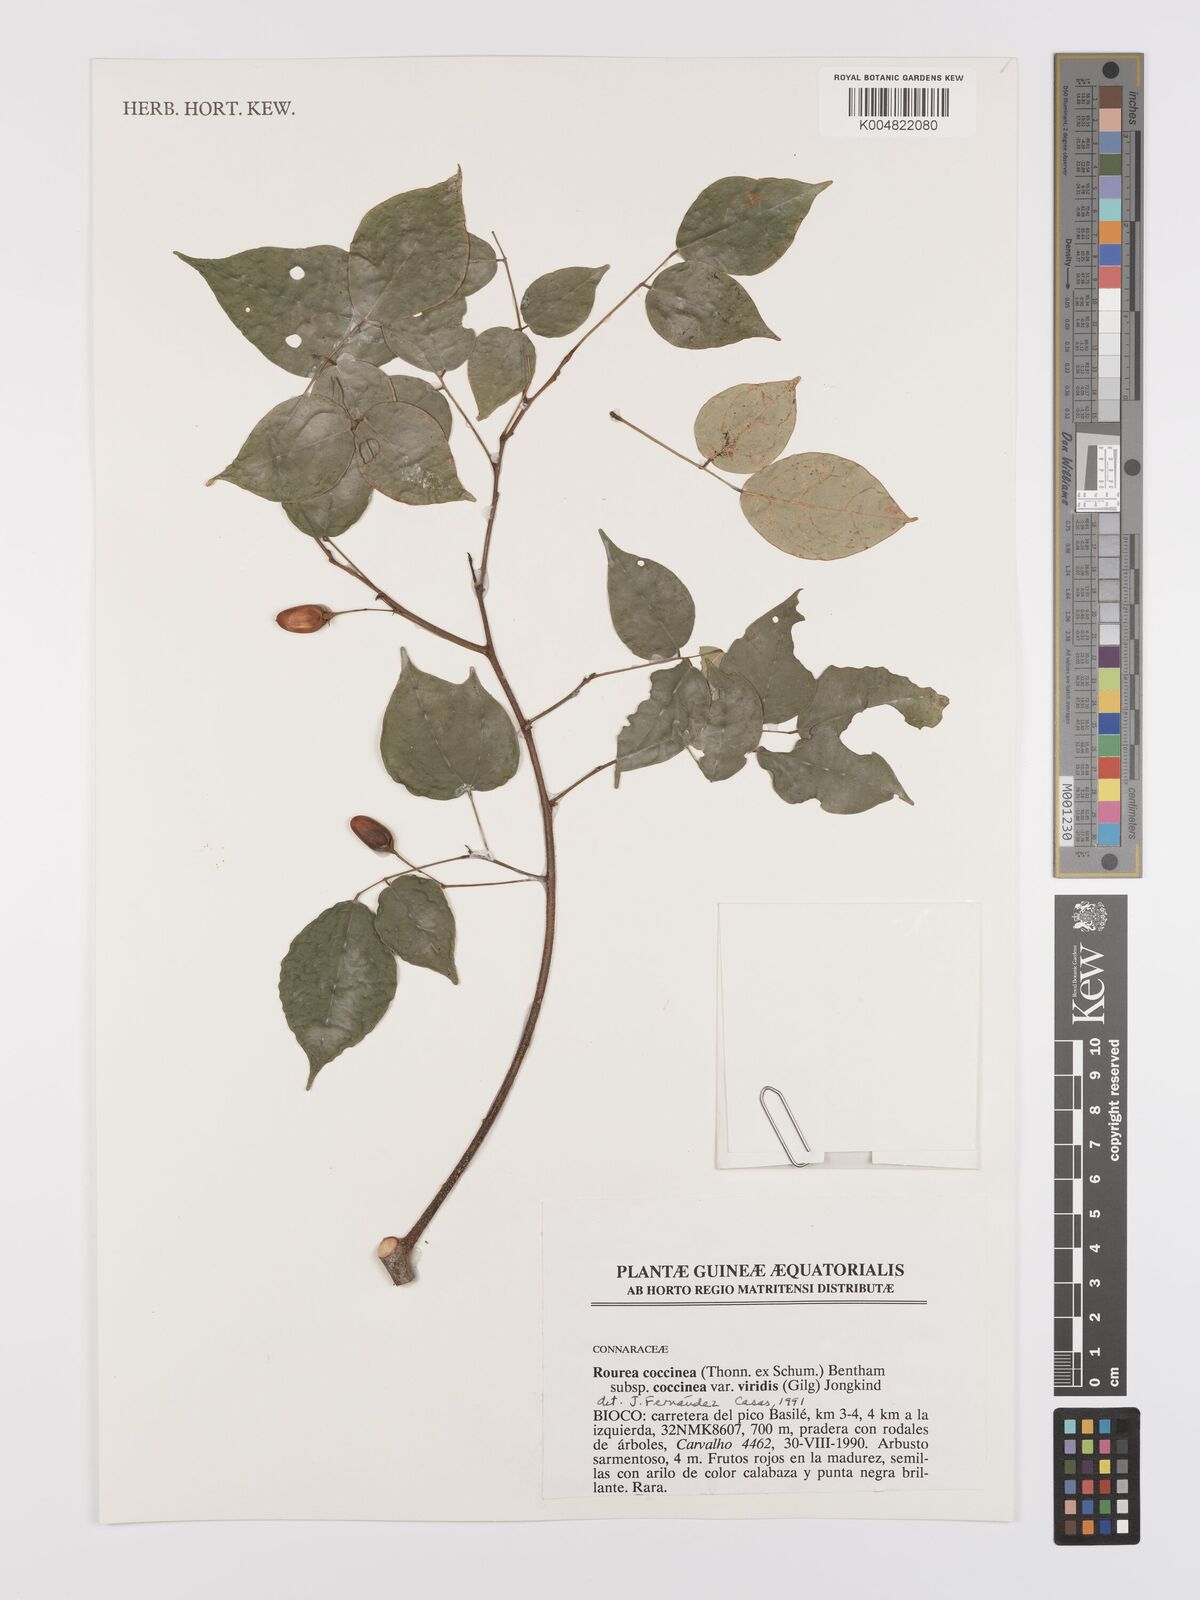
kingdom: Plantae
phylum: Tracheophyta
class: Magnoliopsida
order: Oxalidales
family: Connaraceae
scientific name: Connaraceae
